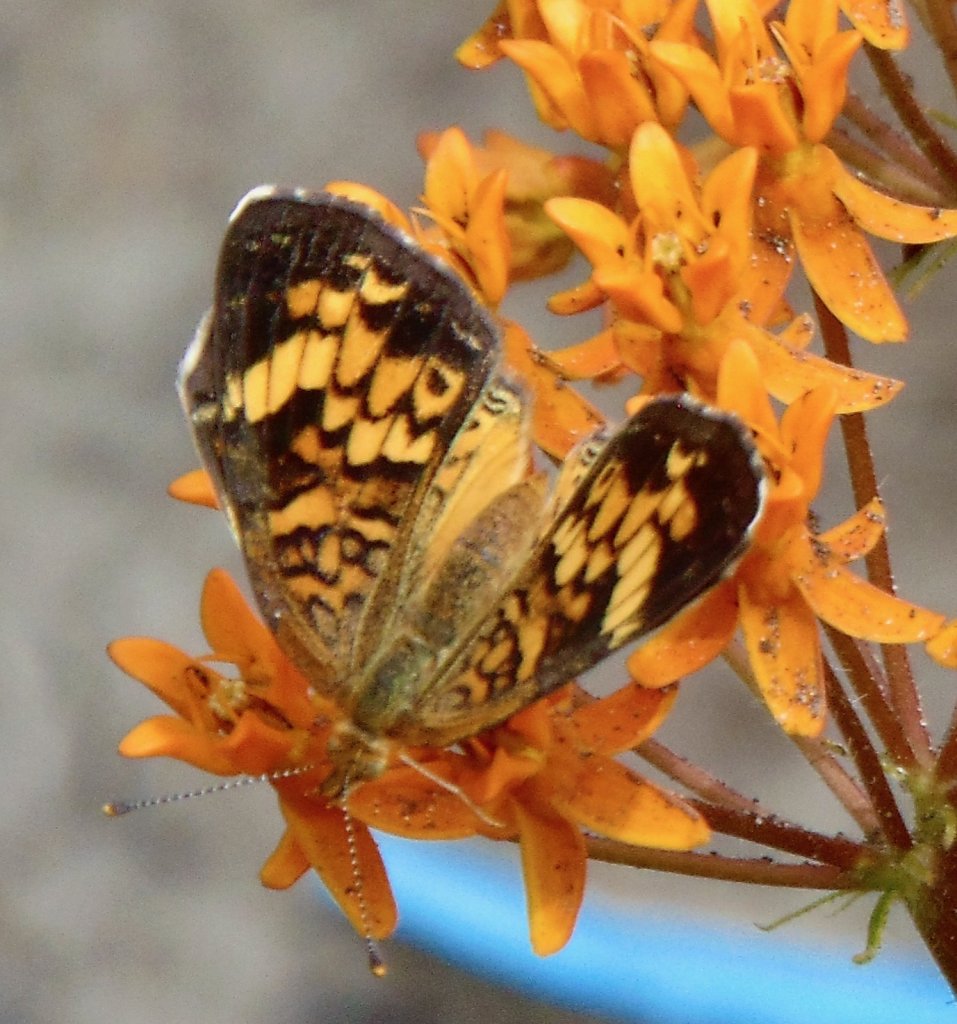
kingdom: Animalia
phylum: Arthropoda
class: Insecta
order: Lepidoptera
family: Nymphalidae
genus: Phyciodes
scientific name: Phyciodes tharos
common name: Pearl Crescent
